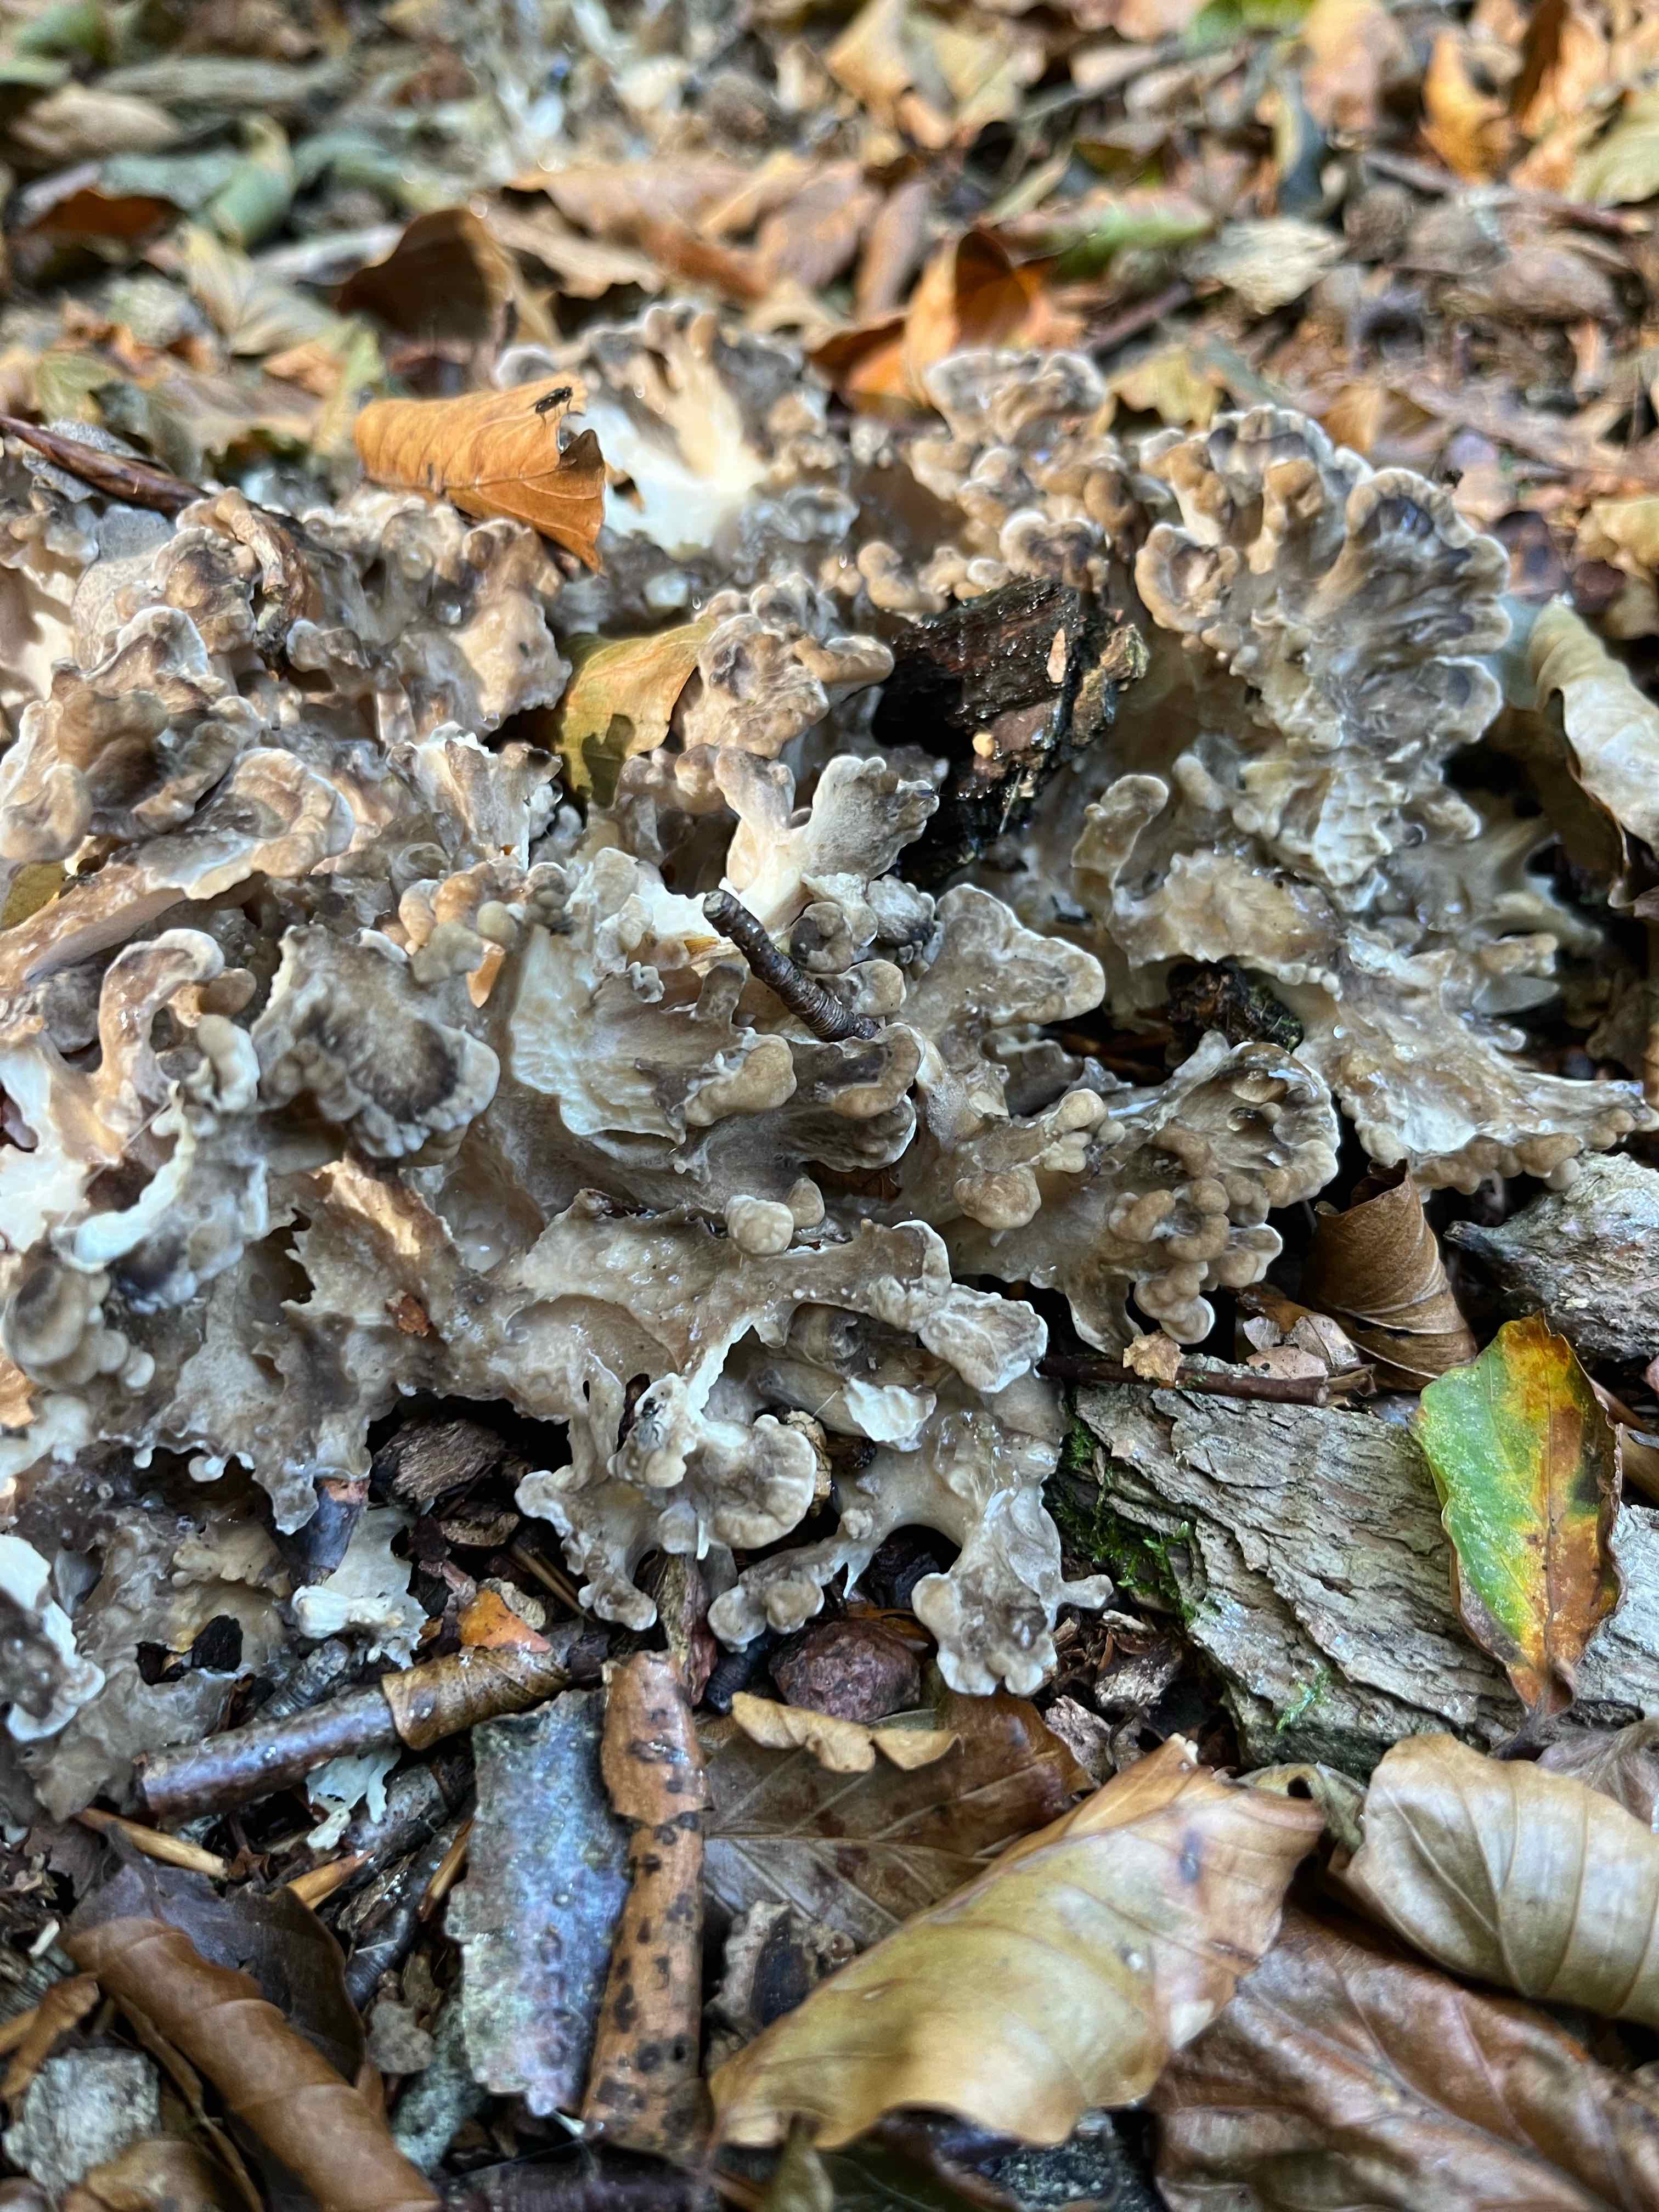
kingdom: Fungi
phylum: Basidiomycota
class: Agaricomycetes
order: Polyporales
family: Grifolaceae
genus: Grifola
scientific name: Grifola frondosa
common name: tueporesvamp
